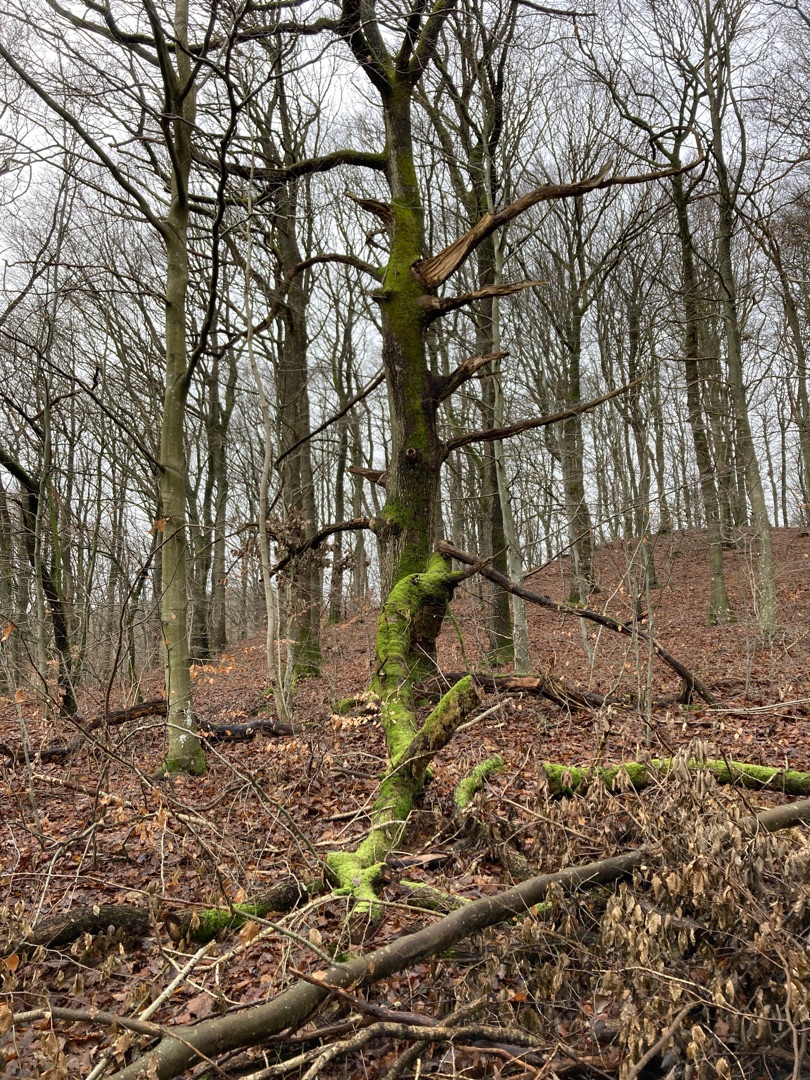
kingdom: Plantae
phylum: Tracheophyta
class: Magnoliopsida
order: Fagales
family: Fagaceae
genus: Quercus
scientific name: Quercus robur
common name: Stilk-eg/almindelig eg
